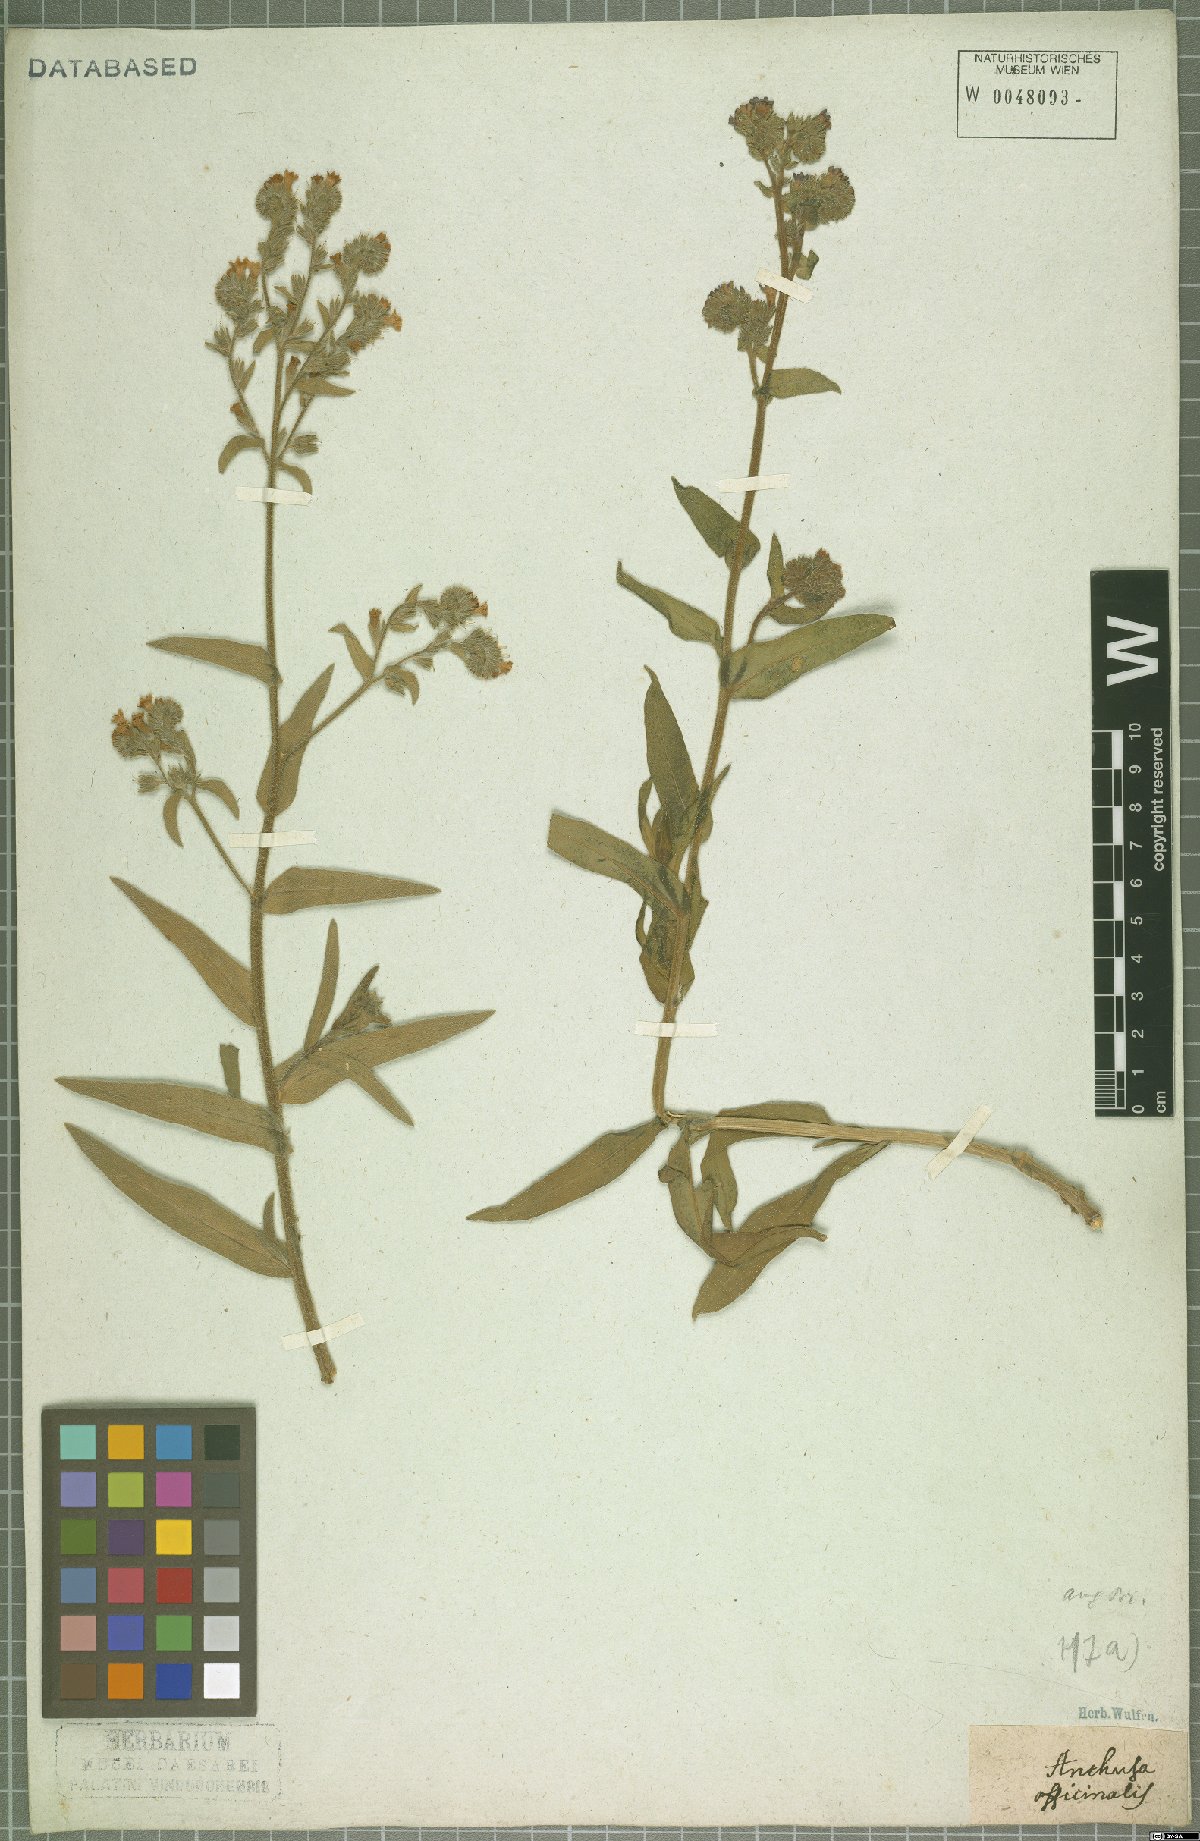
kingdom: Plantae
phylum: Tracheophyta
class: Magnoliopsida
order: Boraginales
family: Boraginaceae
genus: Anchusa
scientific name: Anchusa officinalis
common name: Alkanet
